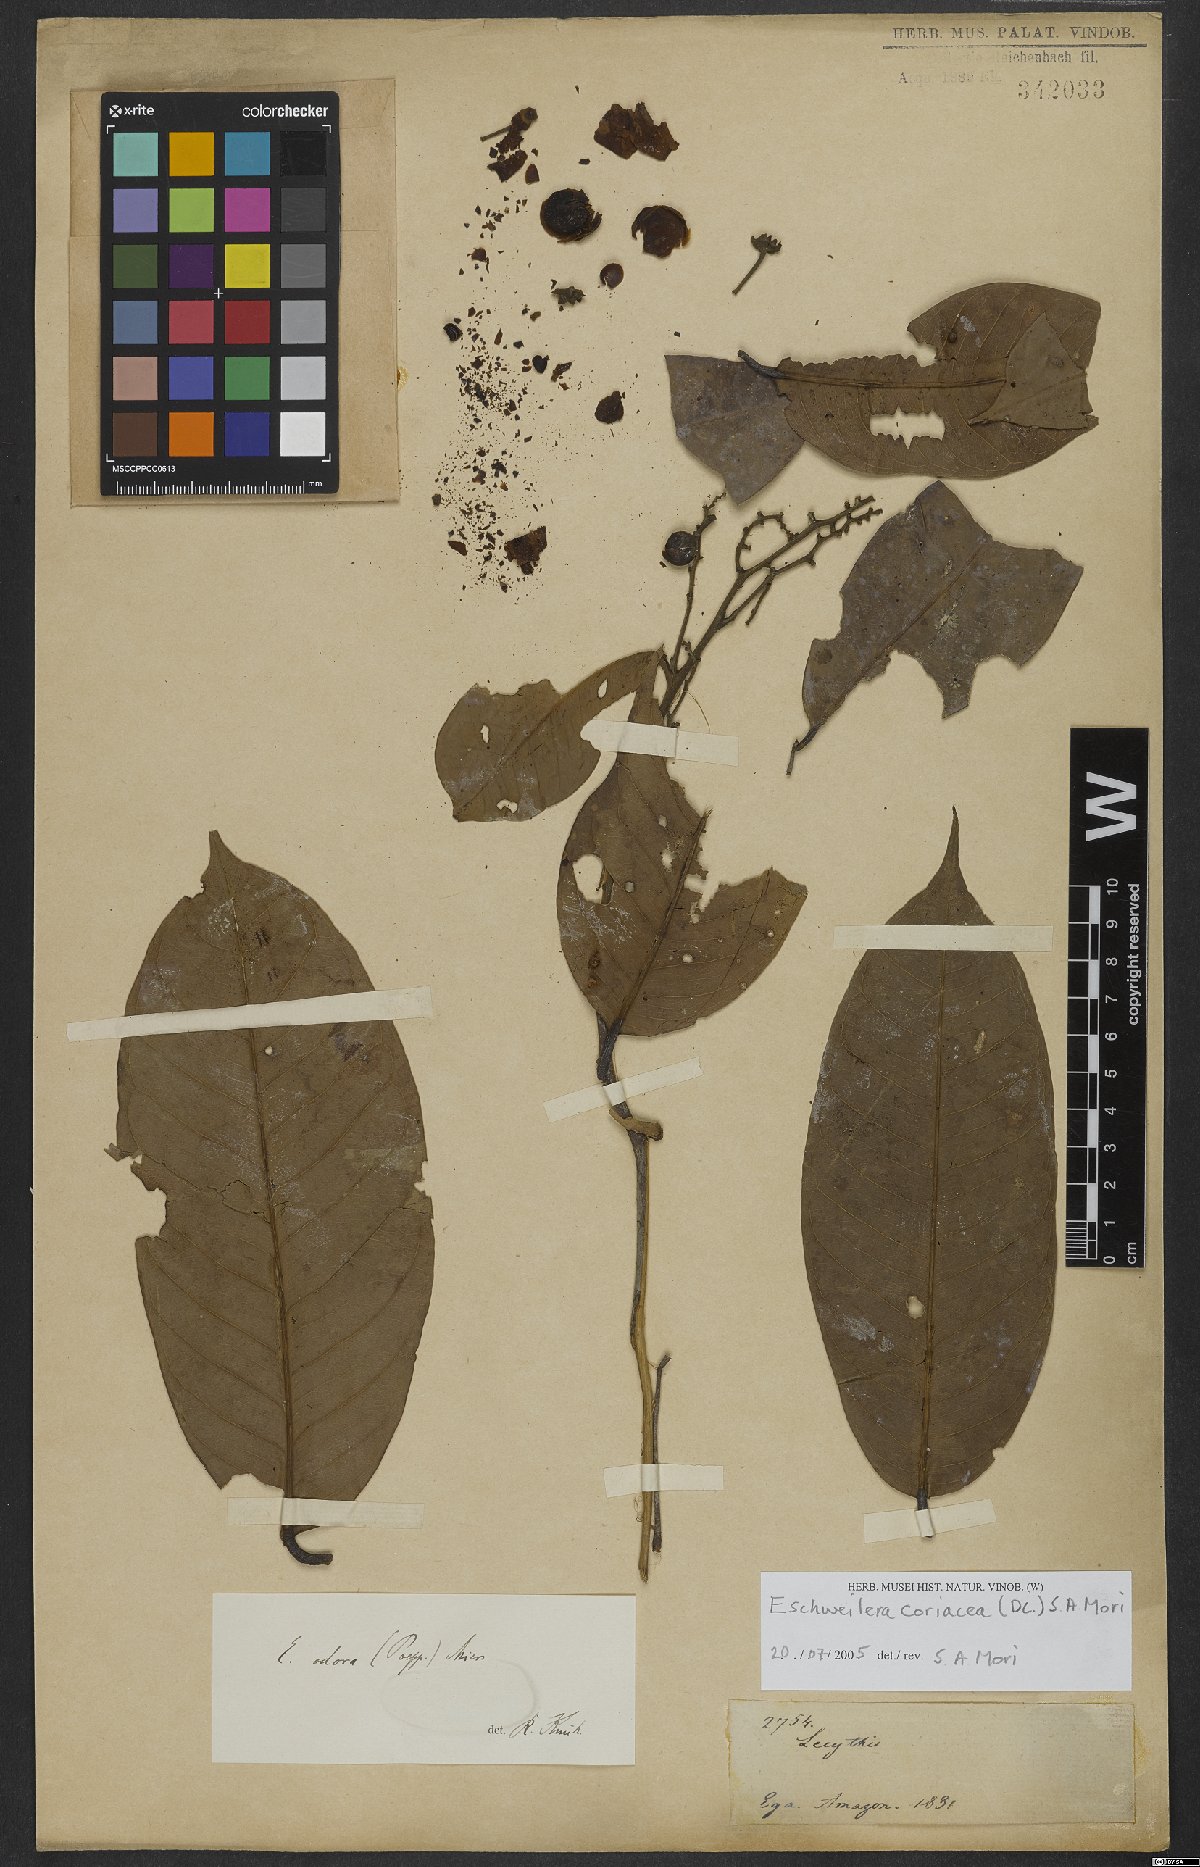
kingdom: Plantae
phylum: Tracheophyta
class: Magnoliopsida
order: Ericales
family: Lecythidaceae
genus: Eschweilera
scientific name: Eschweilera coriacea
